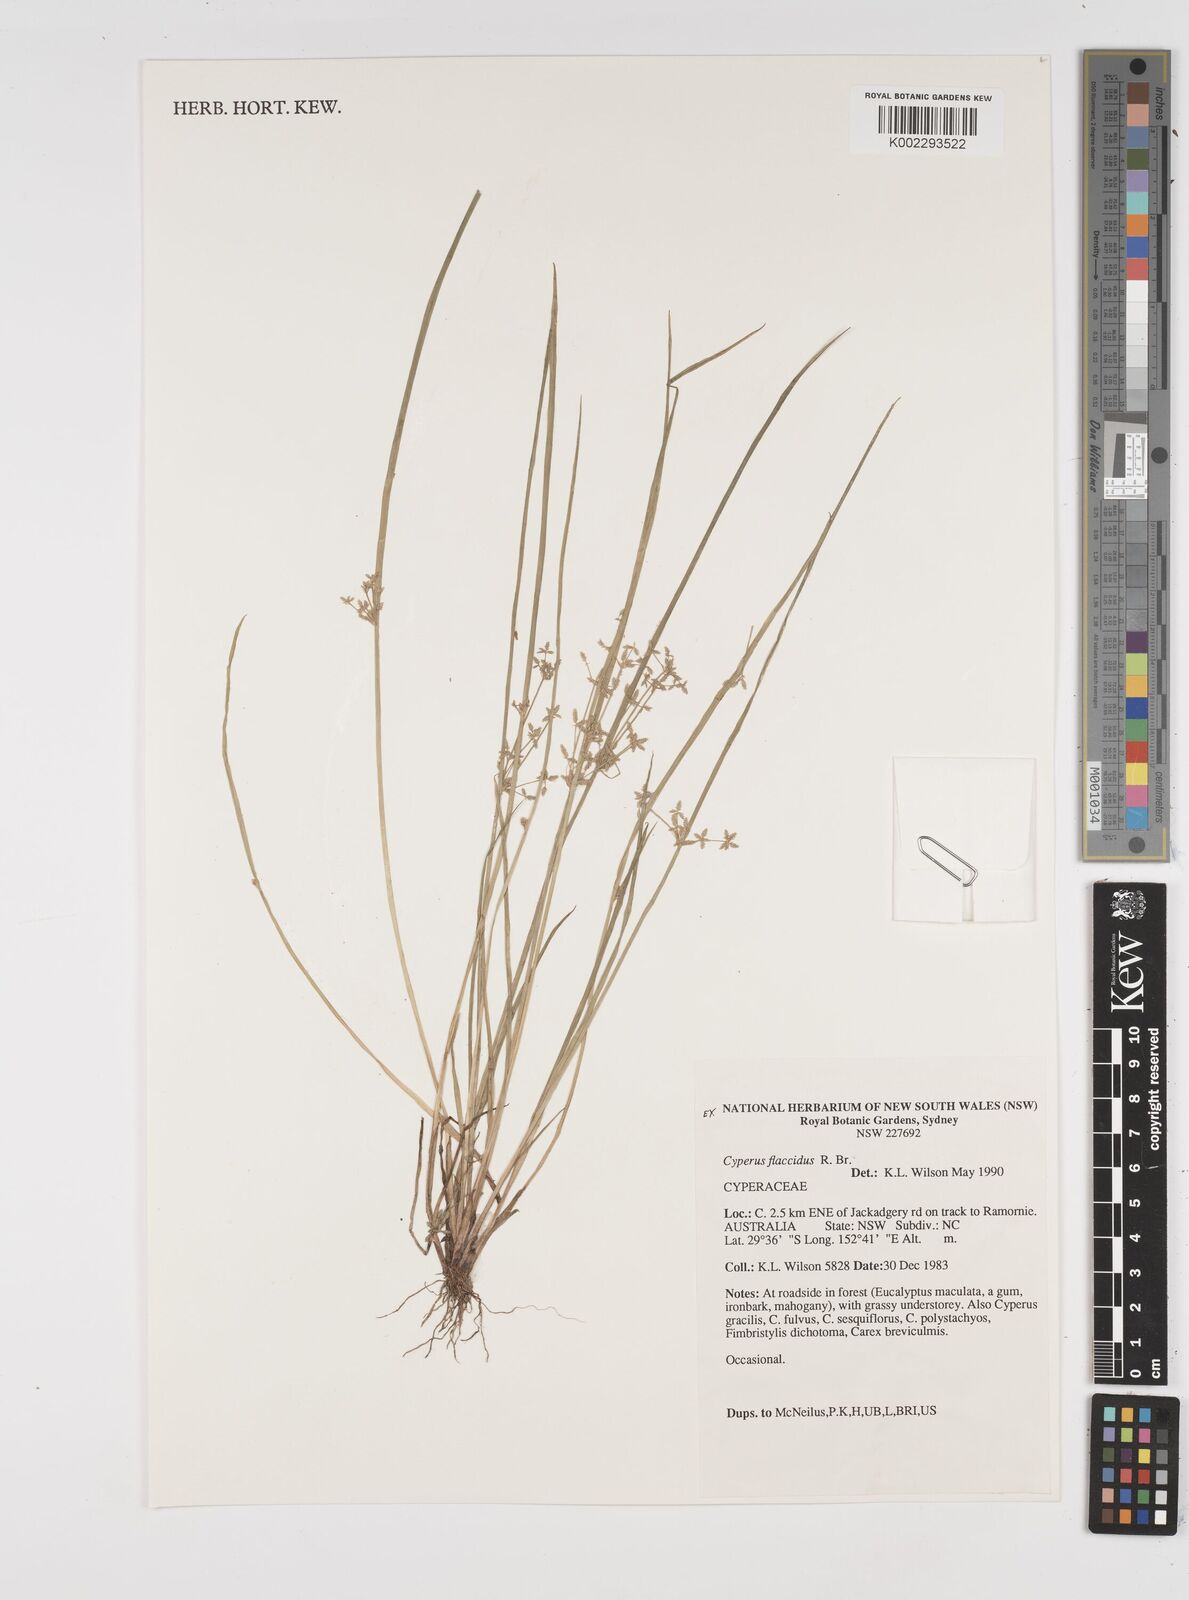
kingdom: Plantae
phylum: Tracheophyta
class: Liliopsida
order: Poales
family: Cyperaceae
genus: Cyperus
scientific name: Cyperus flaccidus
